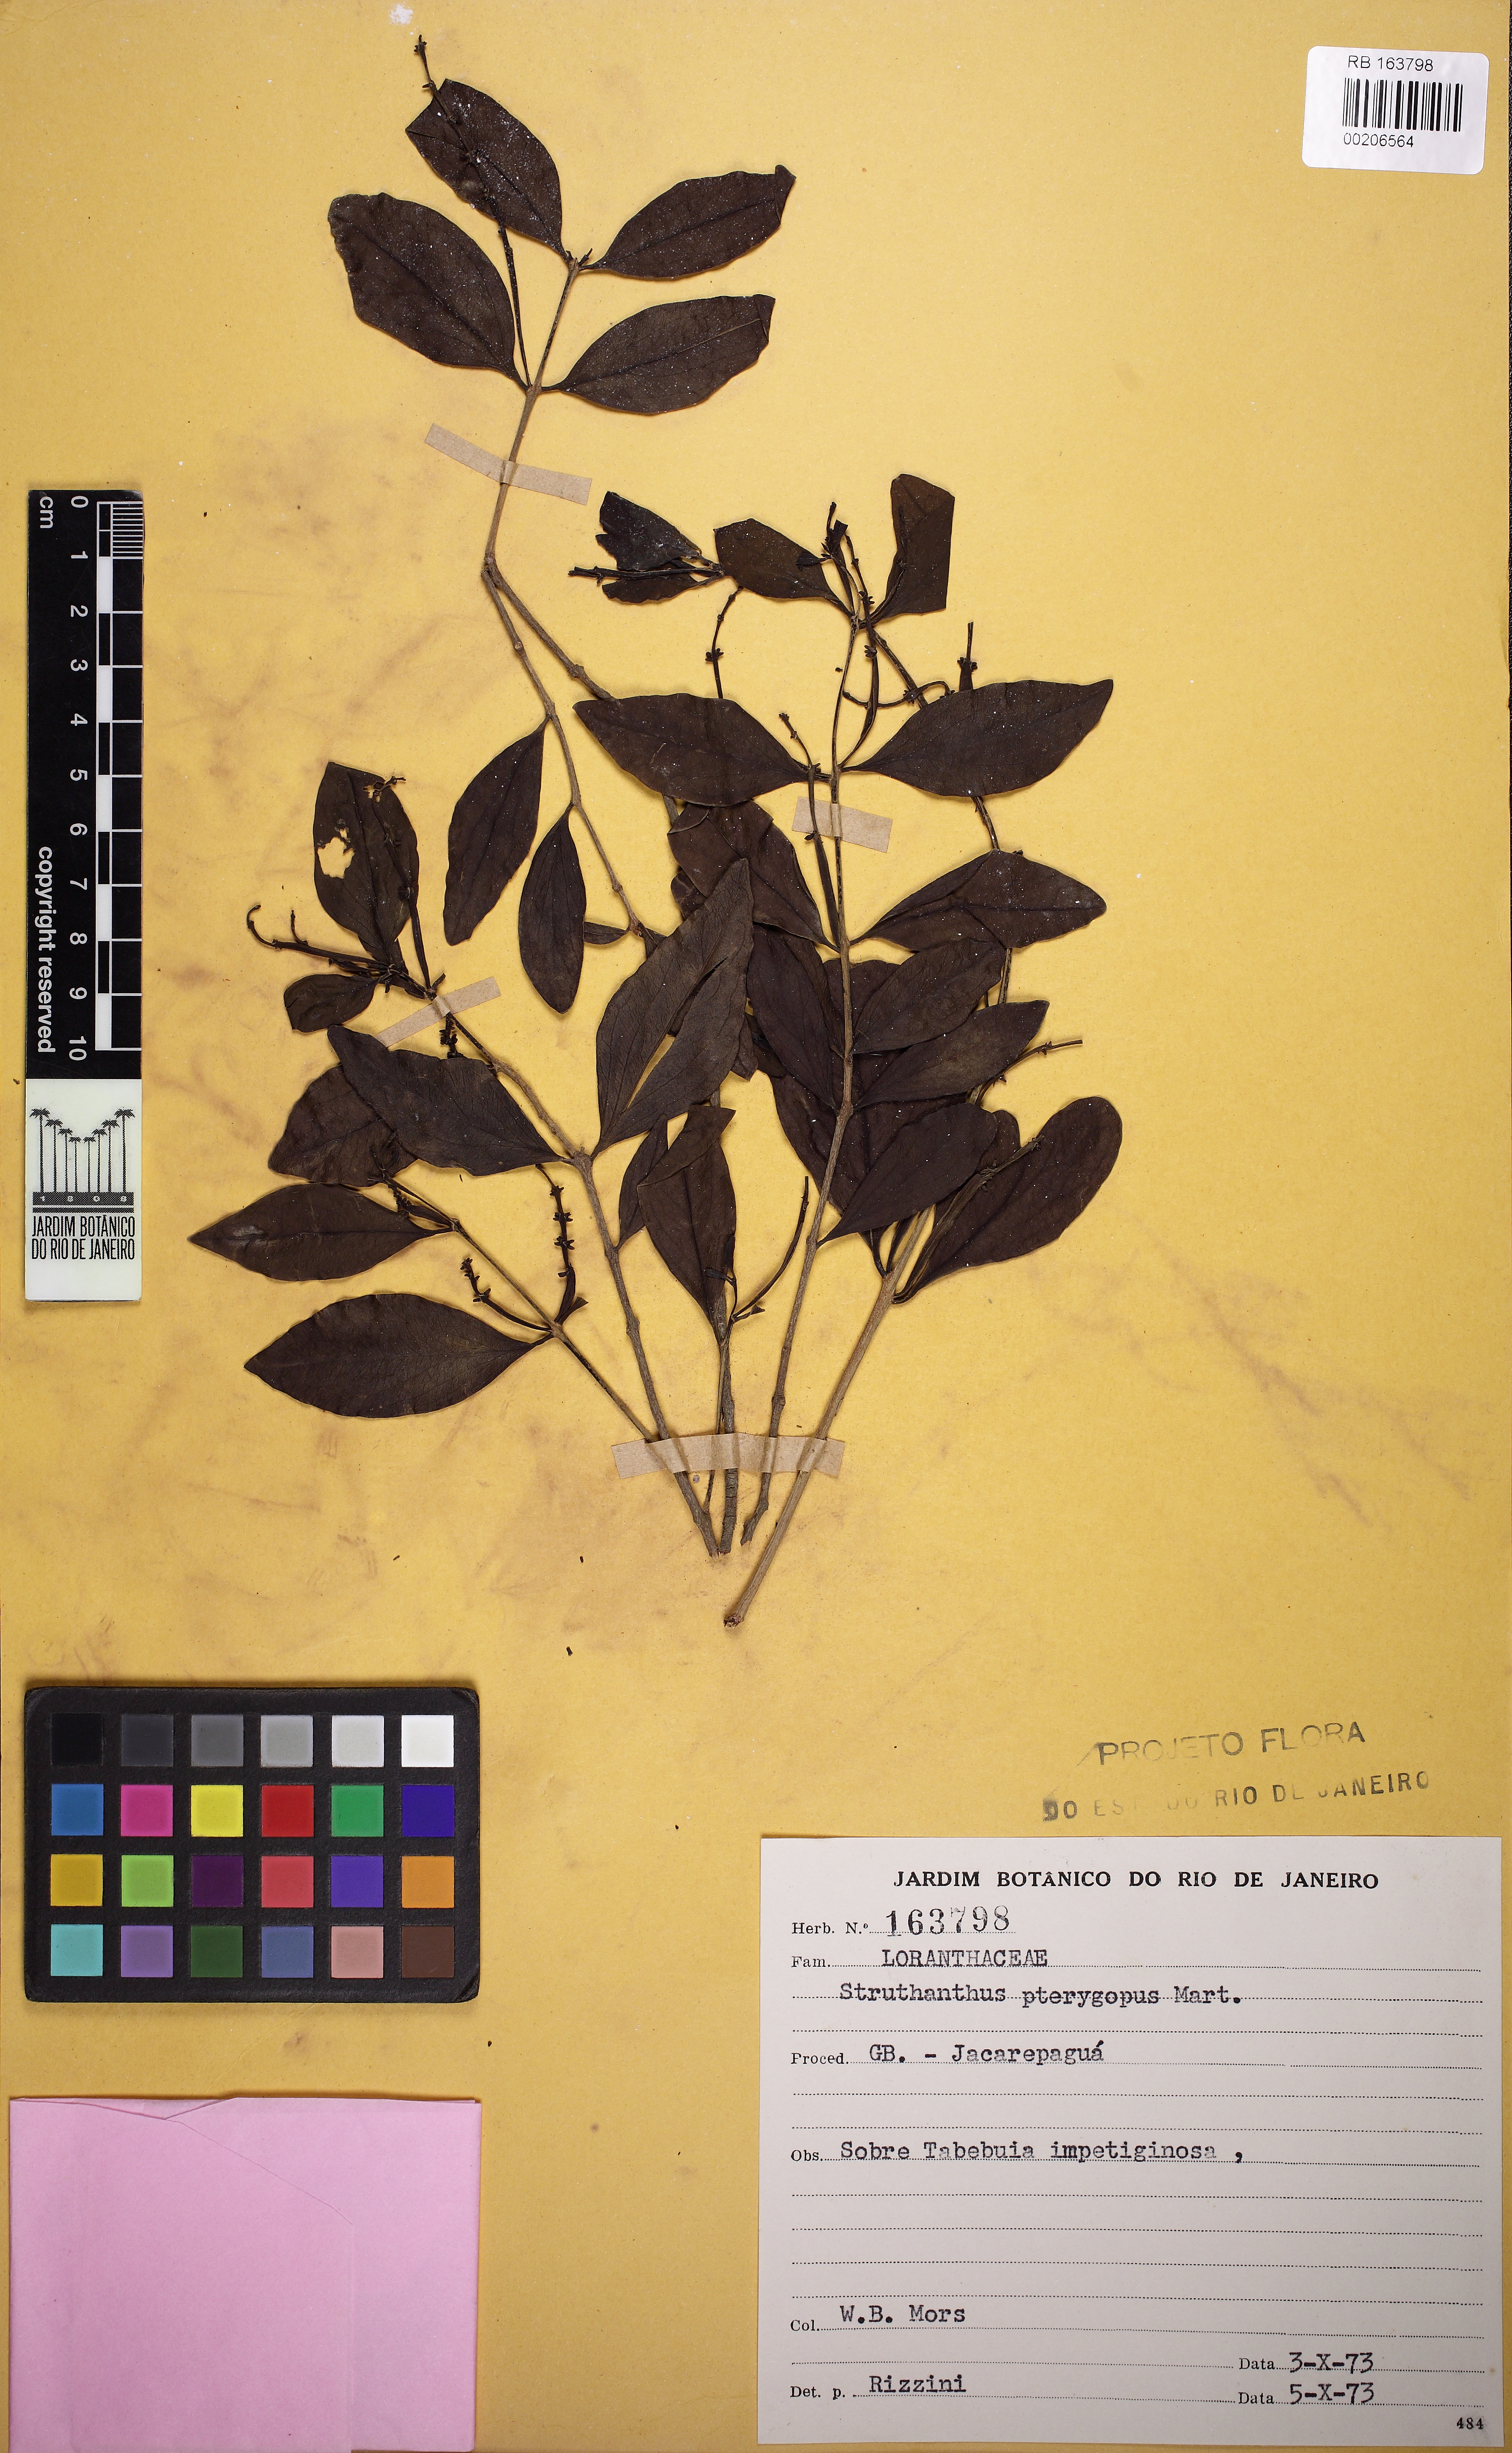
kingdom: Plantae
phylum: Tracheophyta
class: Magnoliopsida
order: Santalales
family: Loranthaceae
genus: Passovia
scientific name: Passovia podoptera
